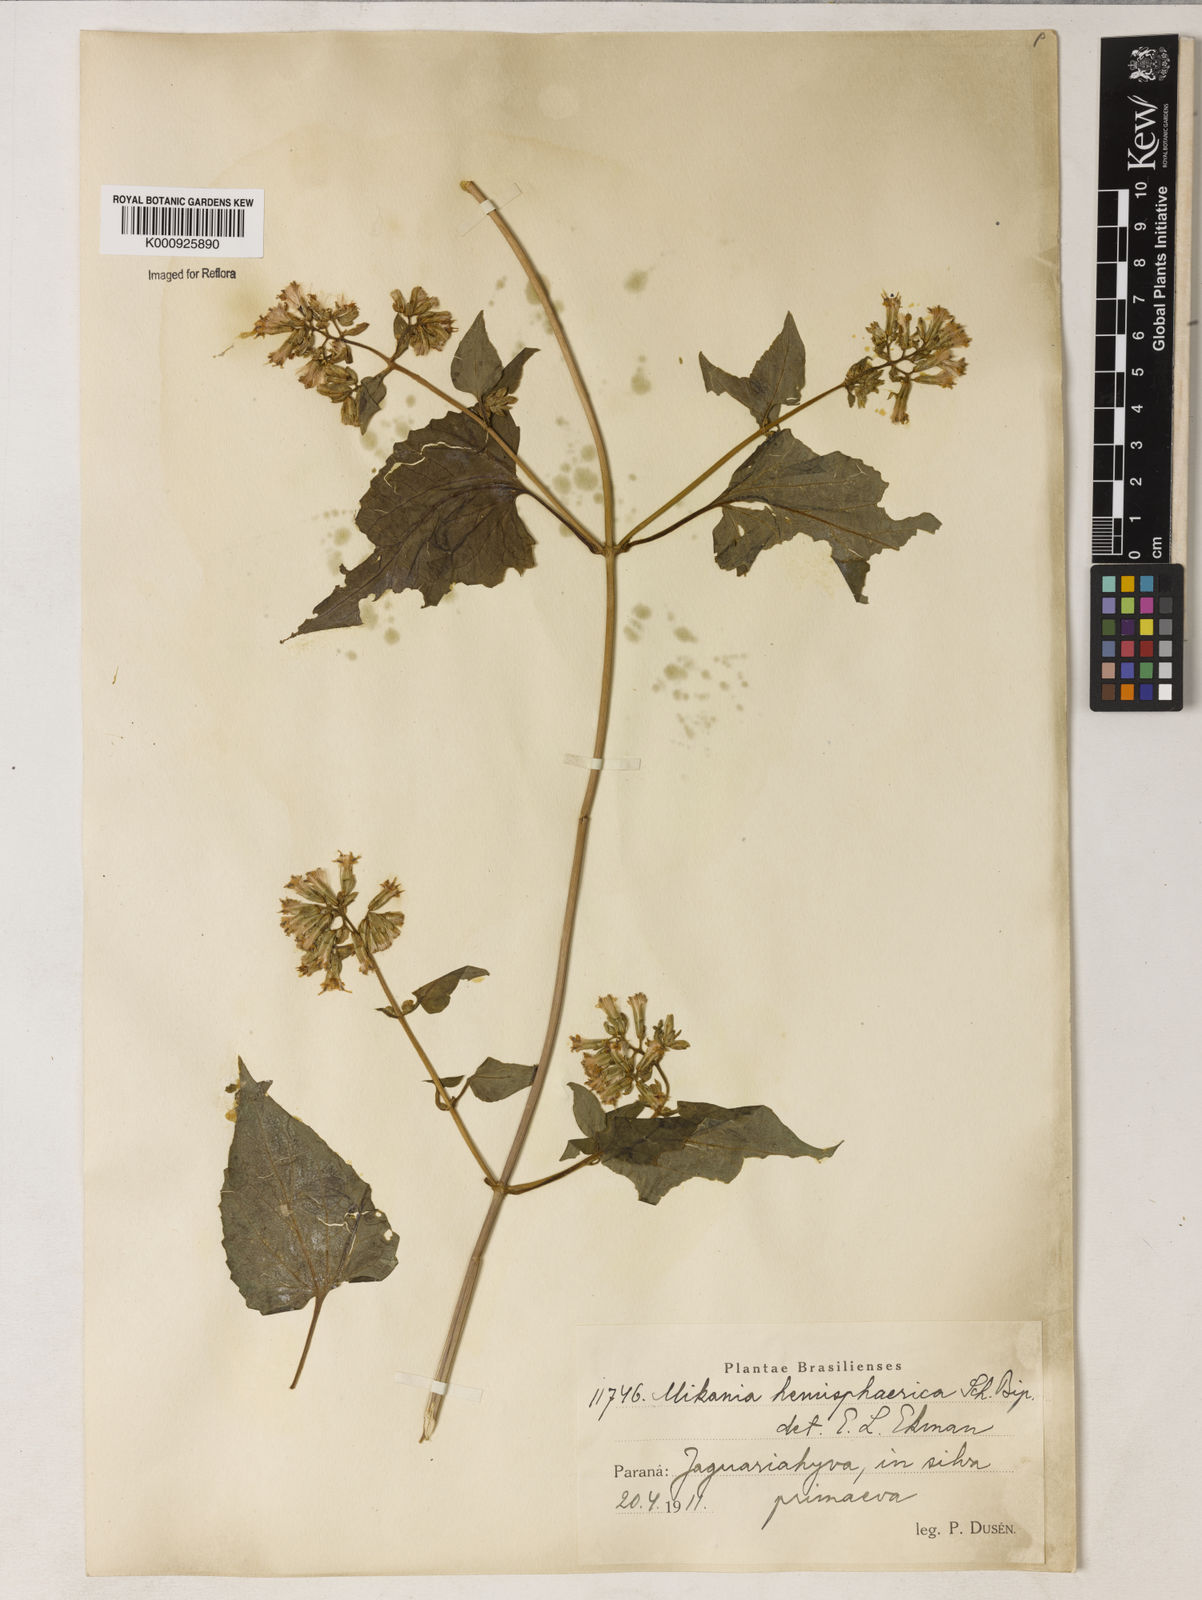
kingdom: Plantae
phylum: Tracheophyta
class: Magnoliopsida
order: Asterales
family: Asteraceae
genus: Mikania
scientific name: Mikania
